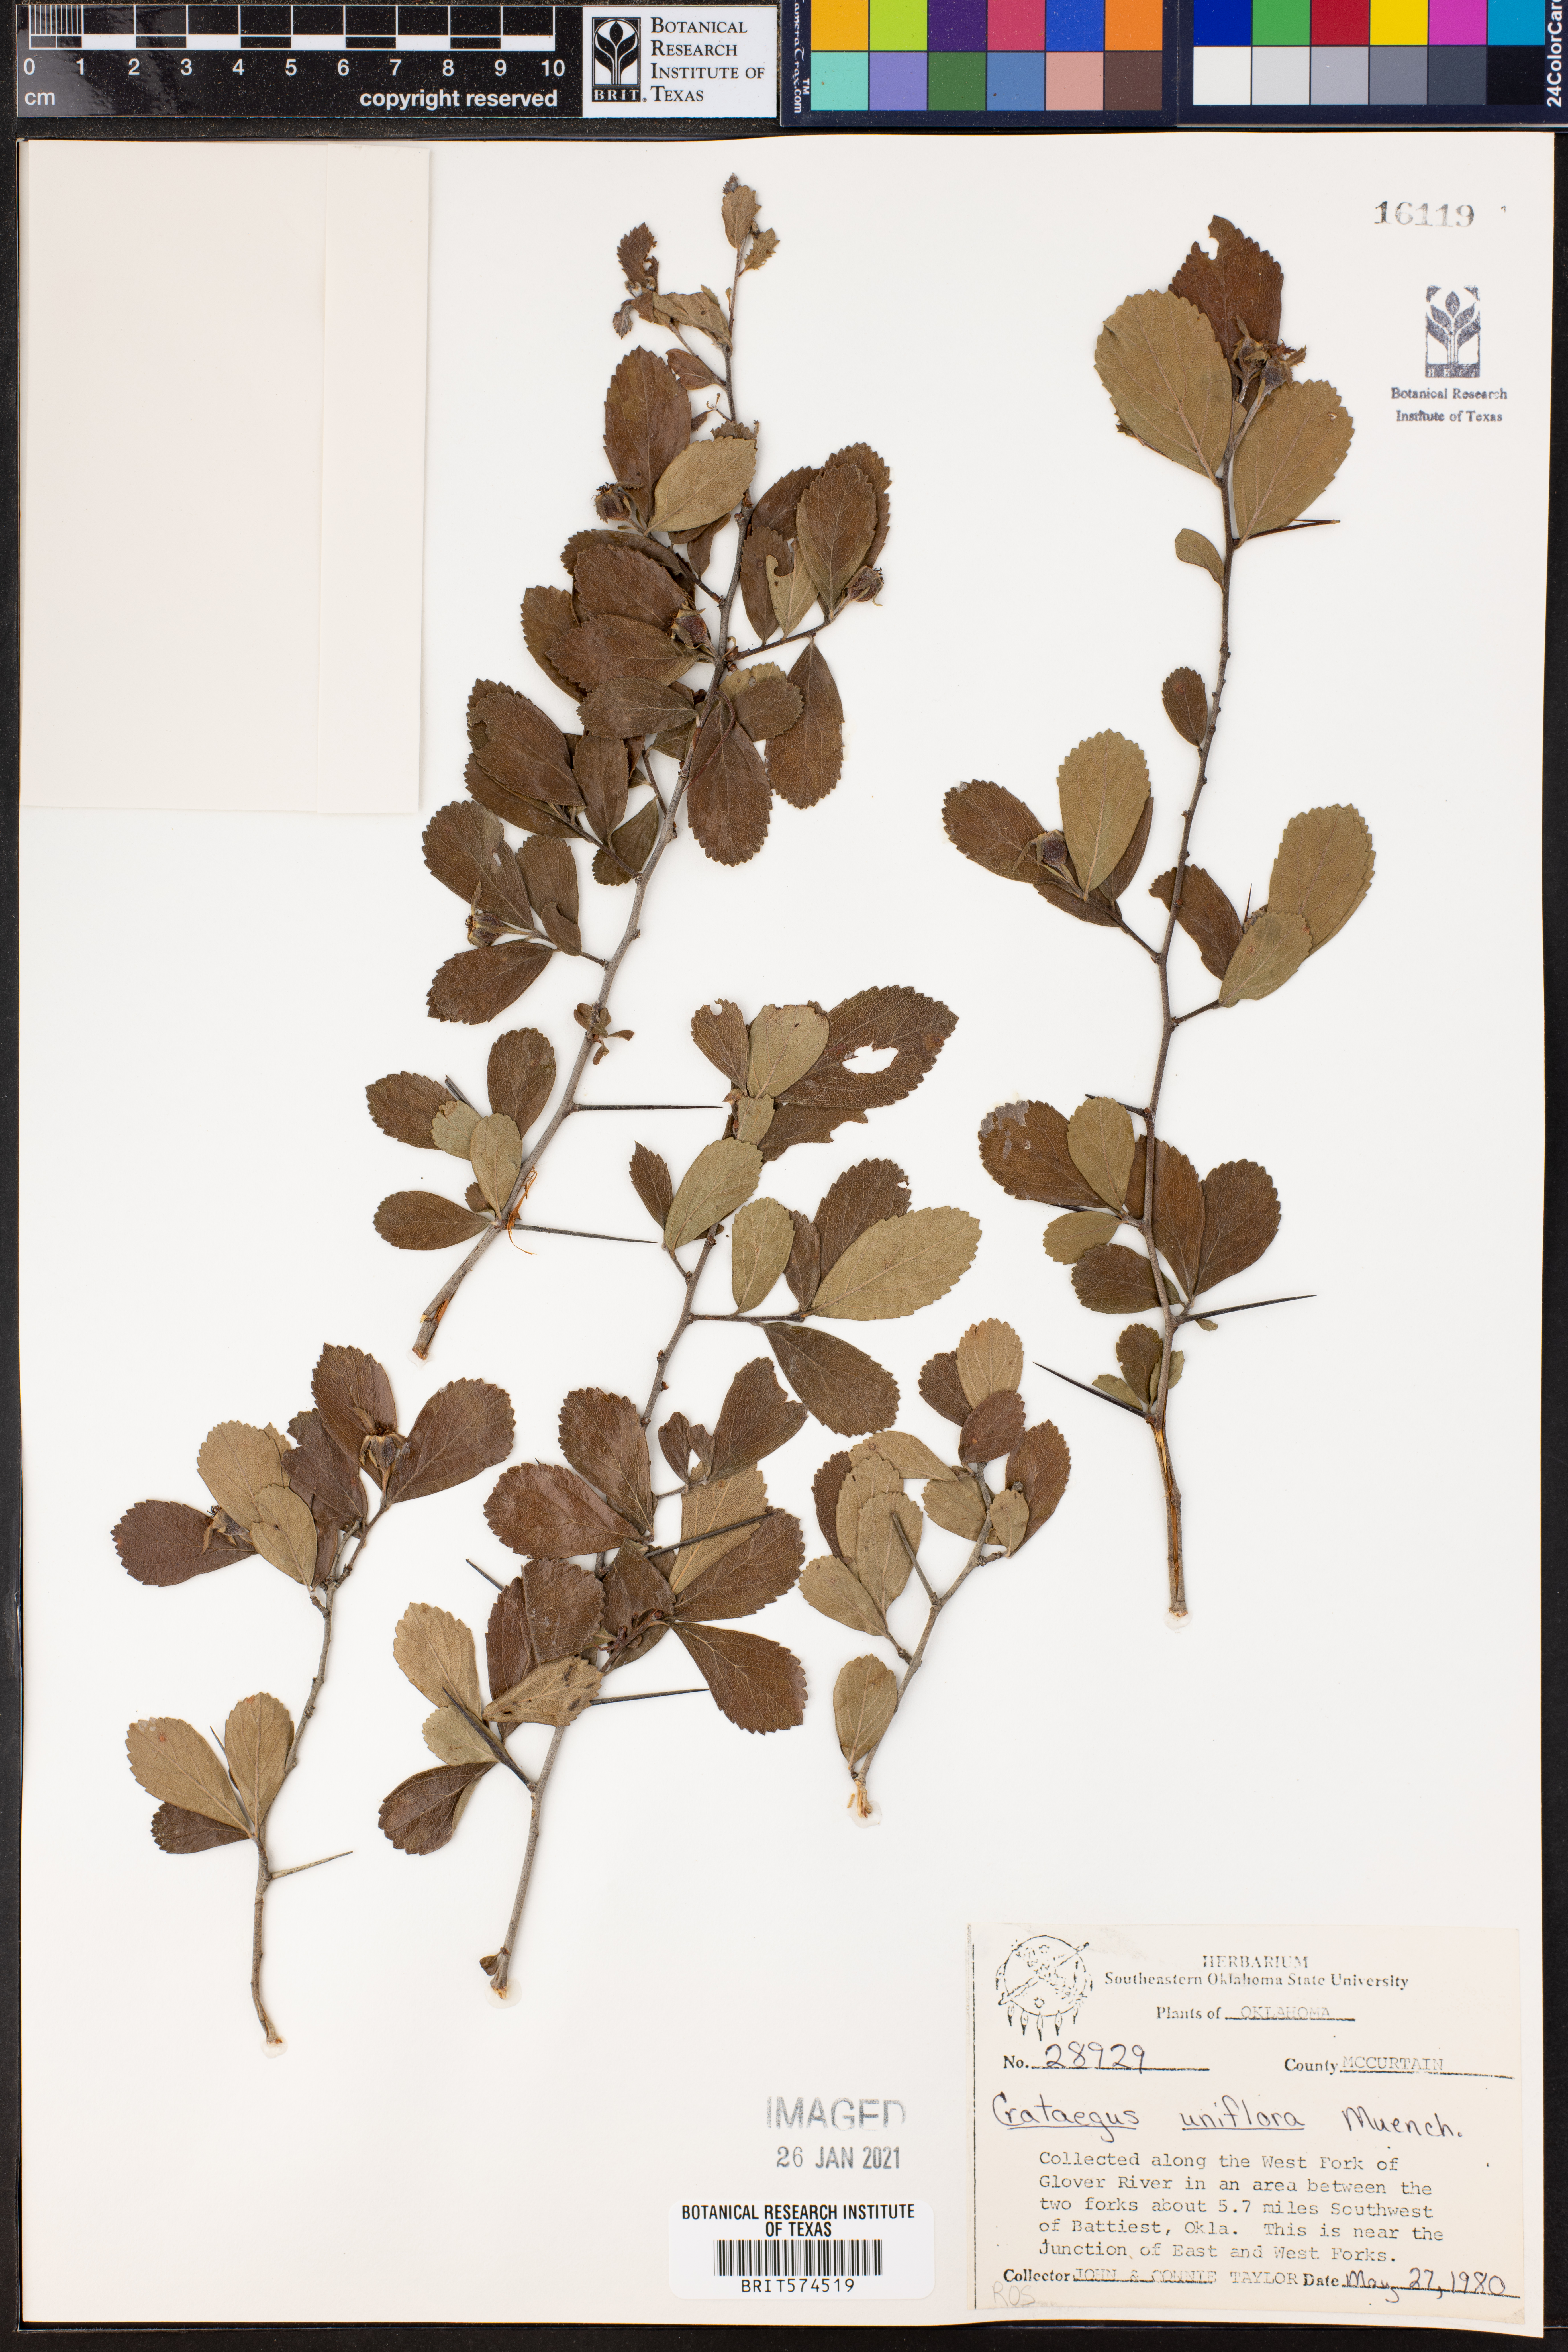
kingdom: Plantae
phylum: Tracheophyta
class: Magnoliopsida
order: Rosales
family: Rosaceae
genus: Crataegus
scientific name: Crataegus uniflora
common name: One-flower hawthorn
